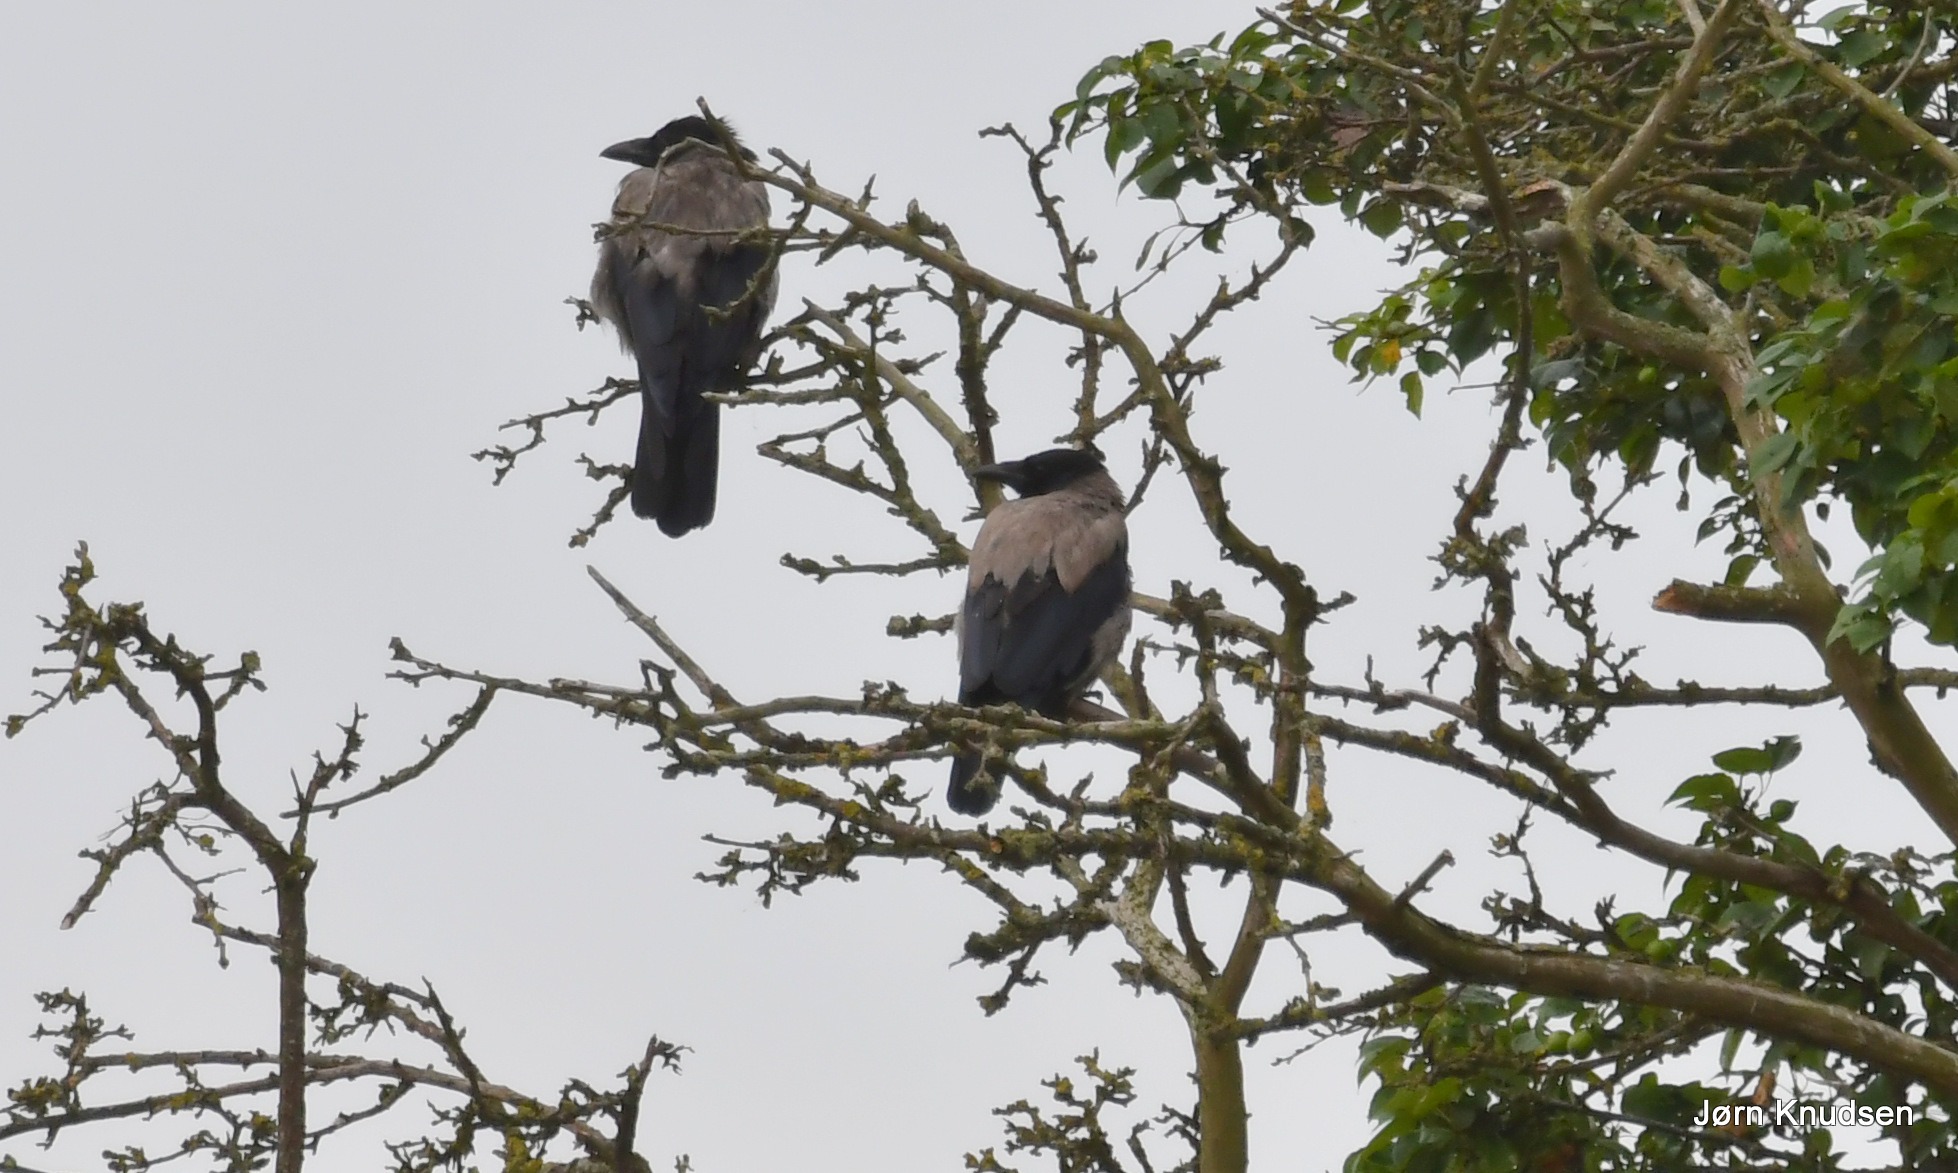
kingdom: Animalia
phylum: Chordata
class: Aves
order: Passeriformes
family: Corvidae
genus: Corvus
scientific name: Corvus cornix
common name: Gråkrage
